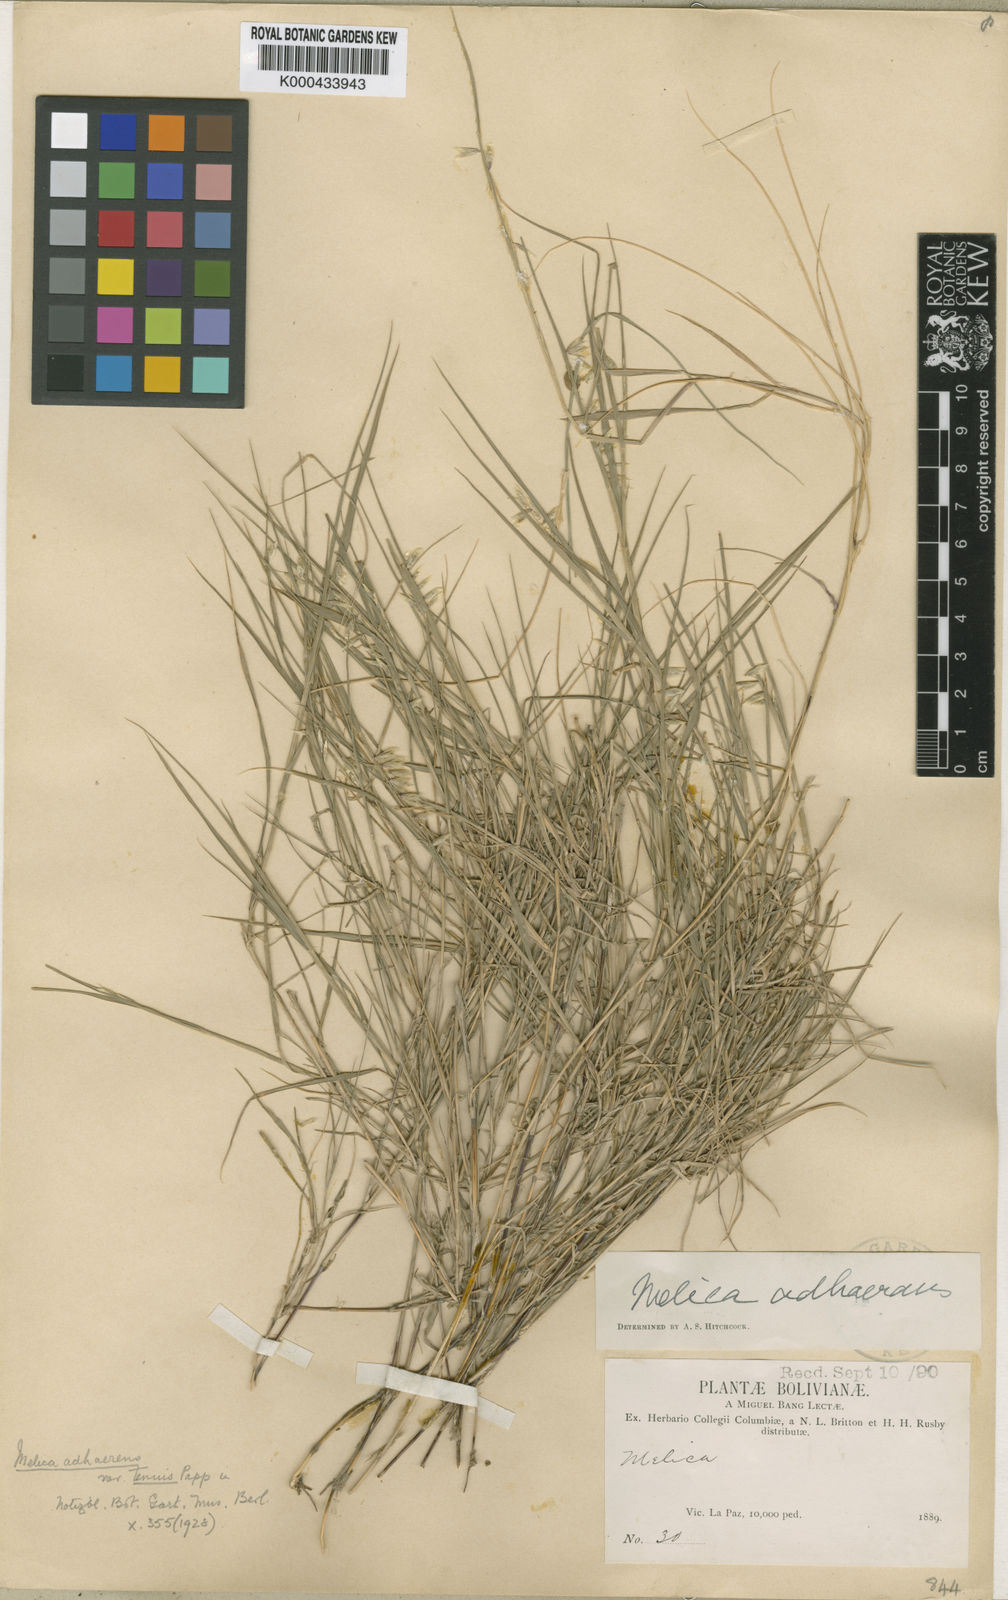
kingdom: Plantae
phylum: Tracheophyta
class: Liliopsida
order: Poales
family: Poaceae
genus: Melica
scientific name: Melica chilensis
